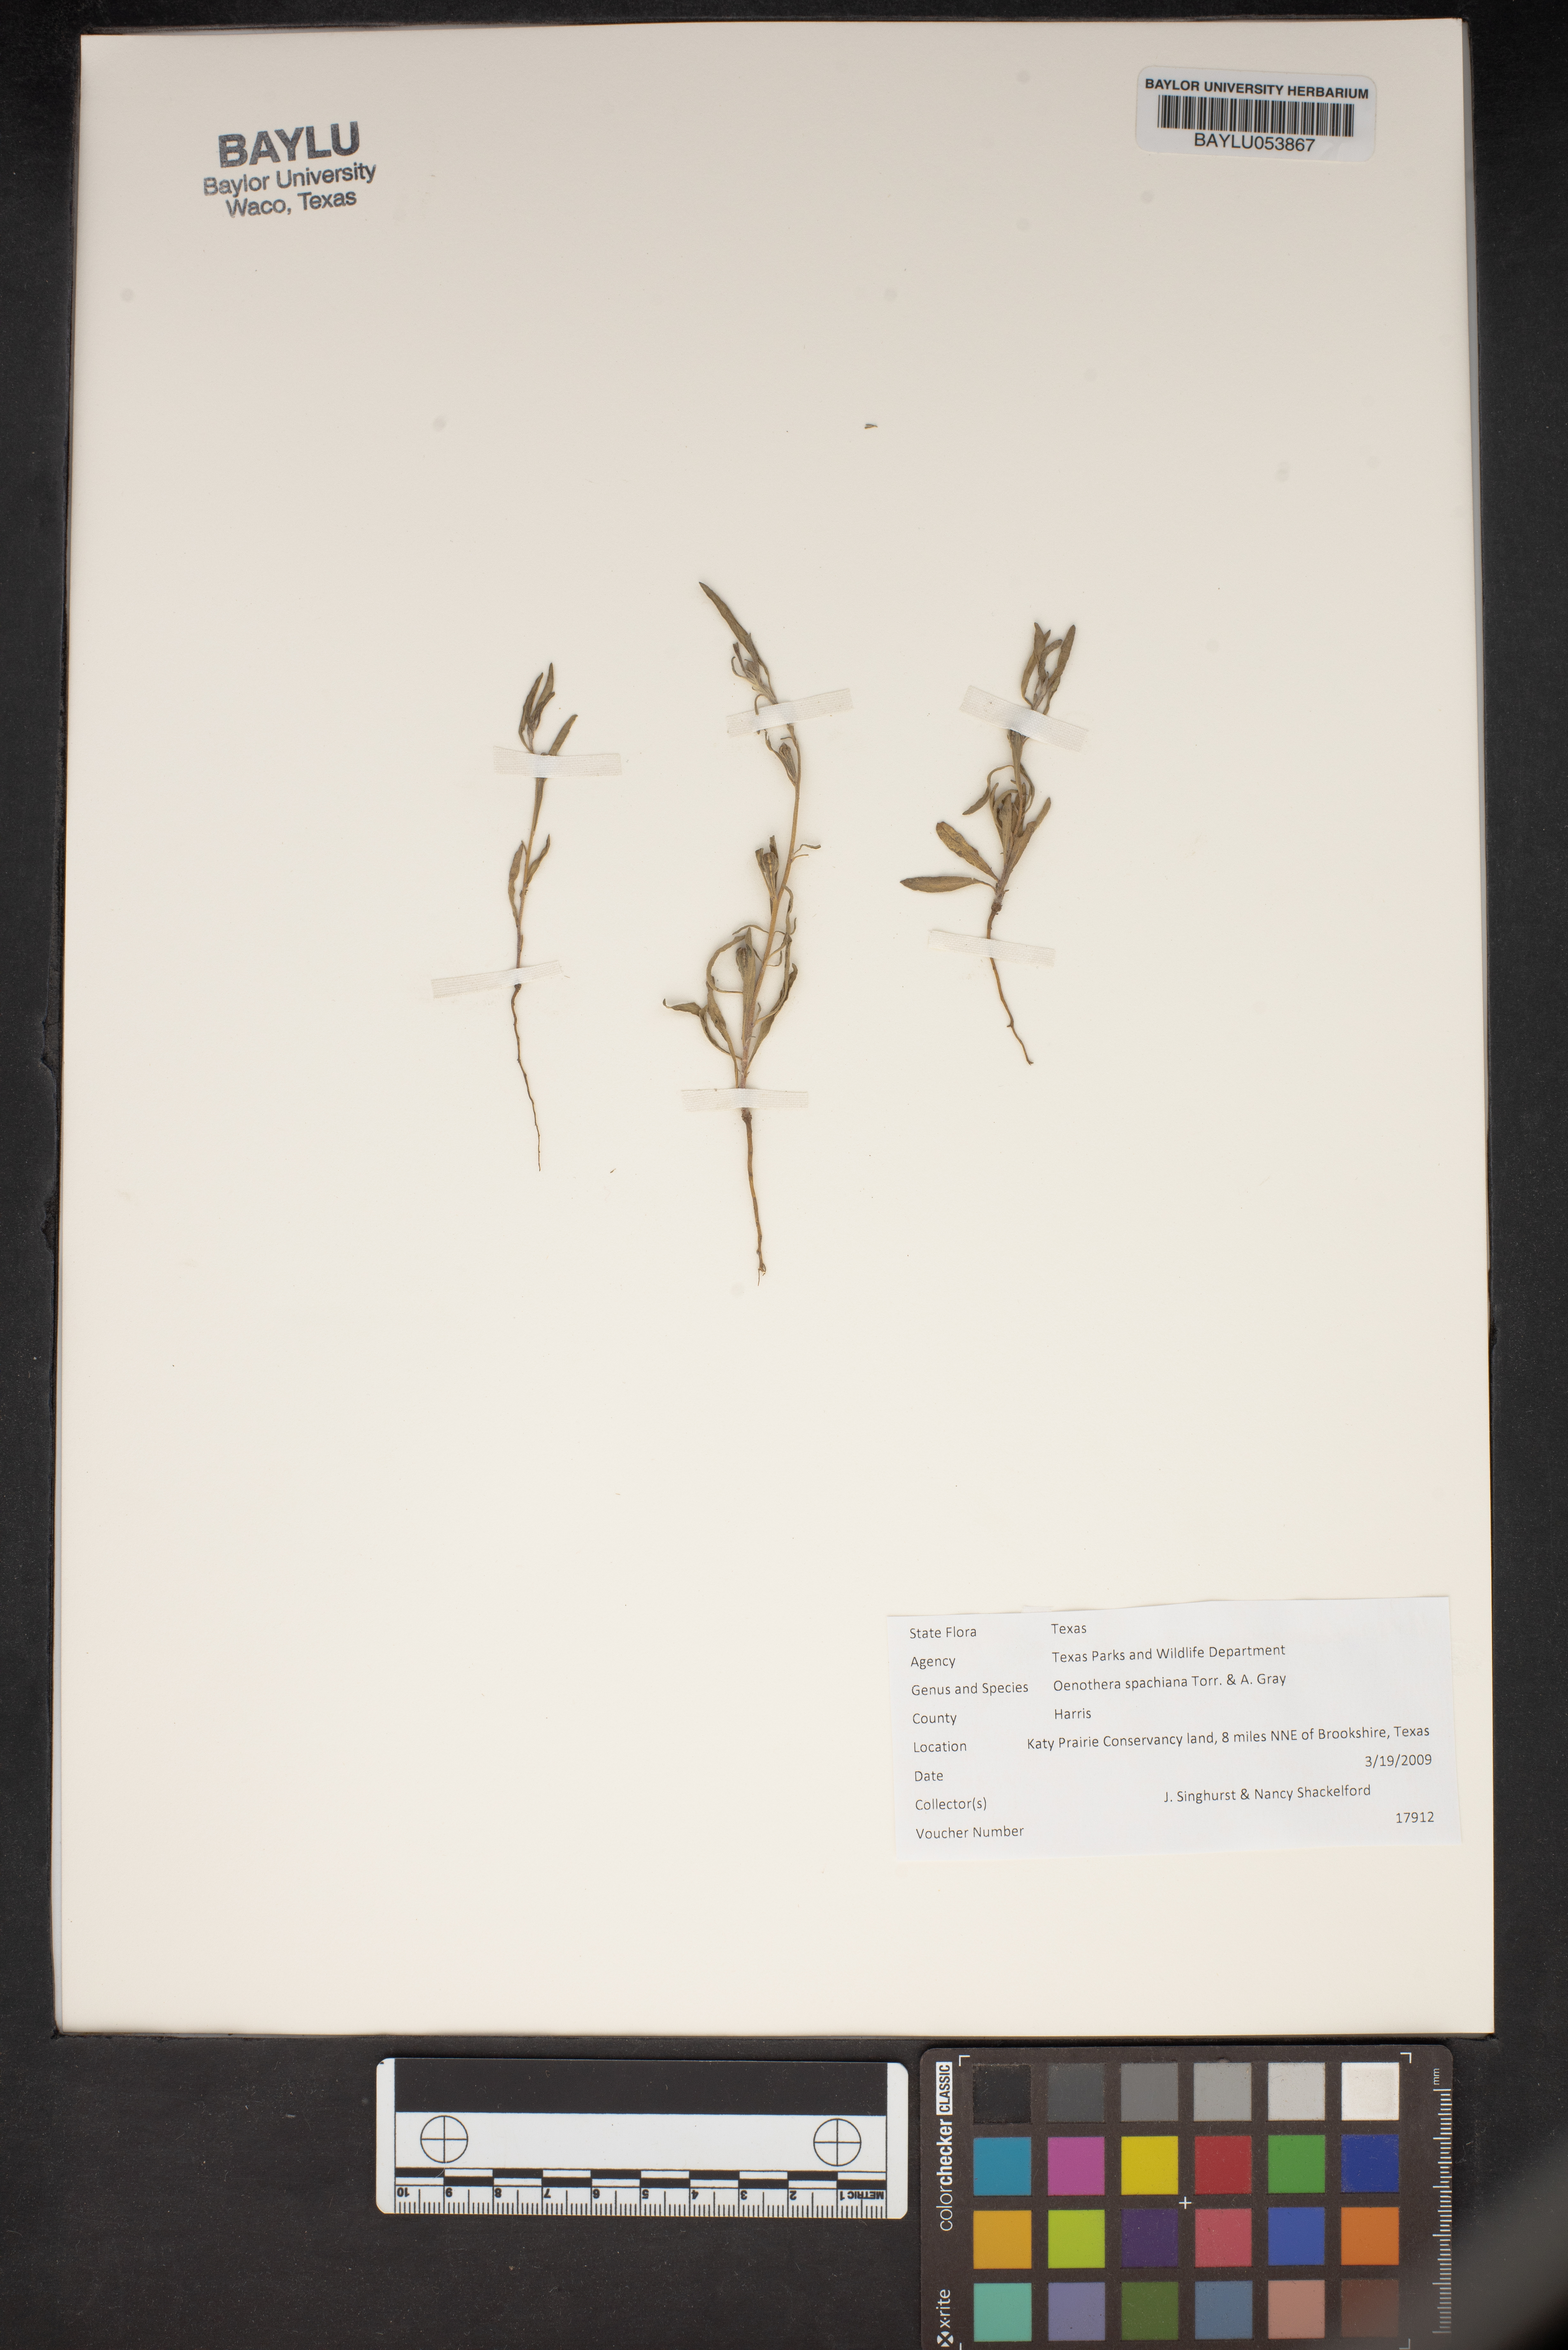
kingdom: Plantae
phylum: Tracheophyta
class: Magnoliopsida
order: Myrtales
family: Onagraceae
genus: Oenothera
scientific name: Oenothera spachiana
